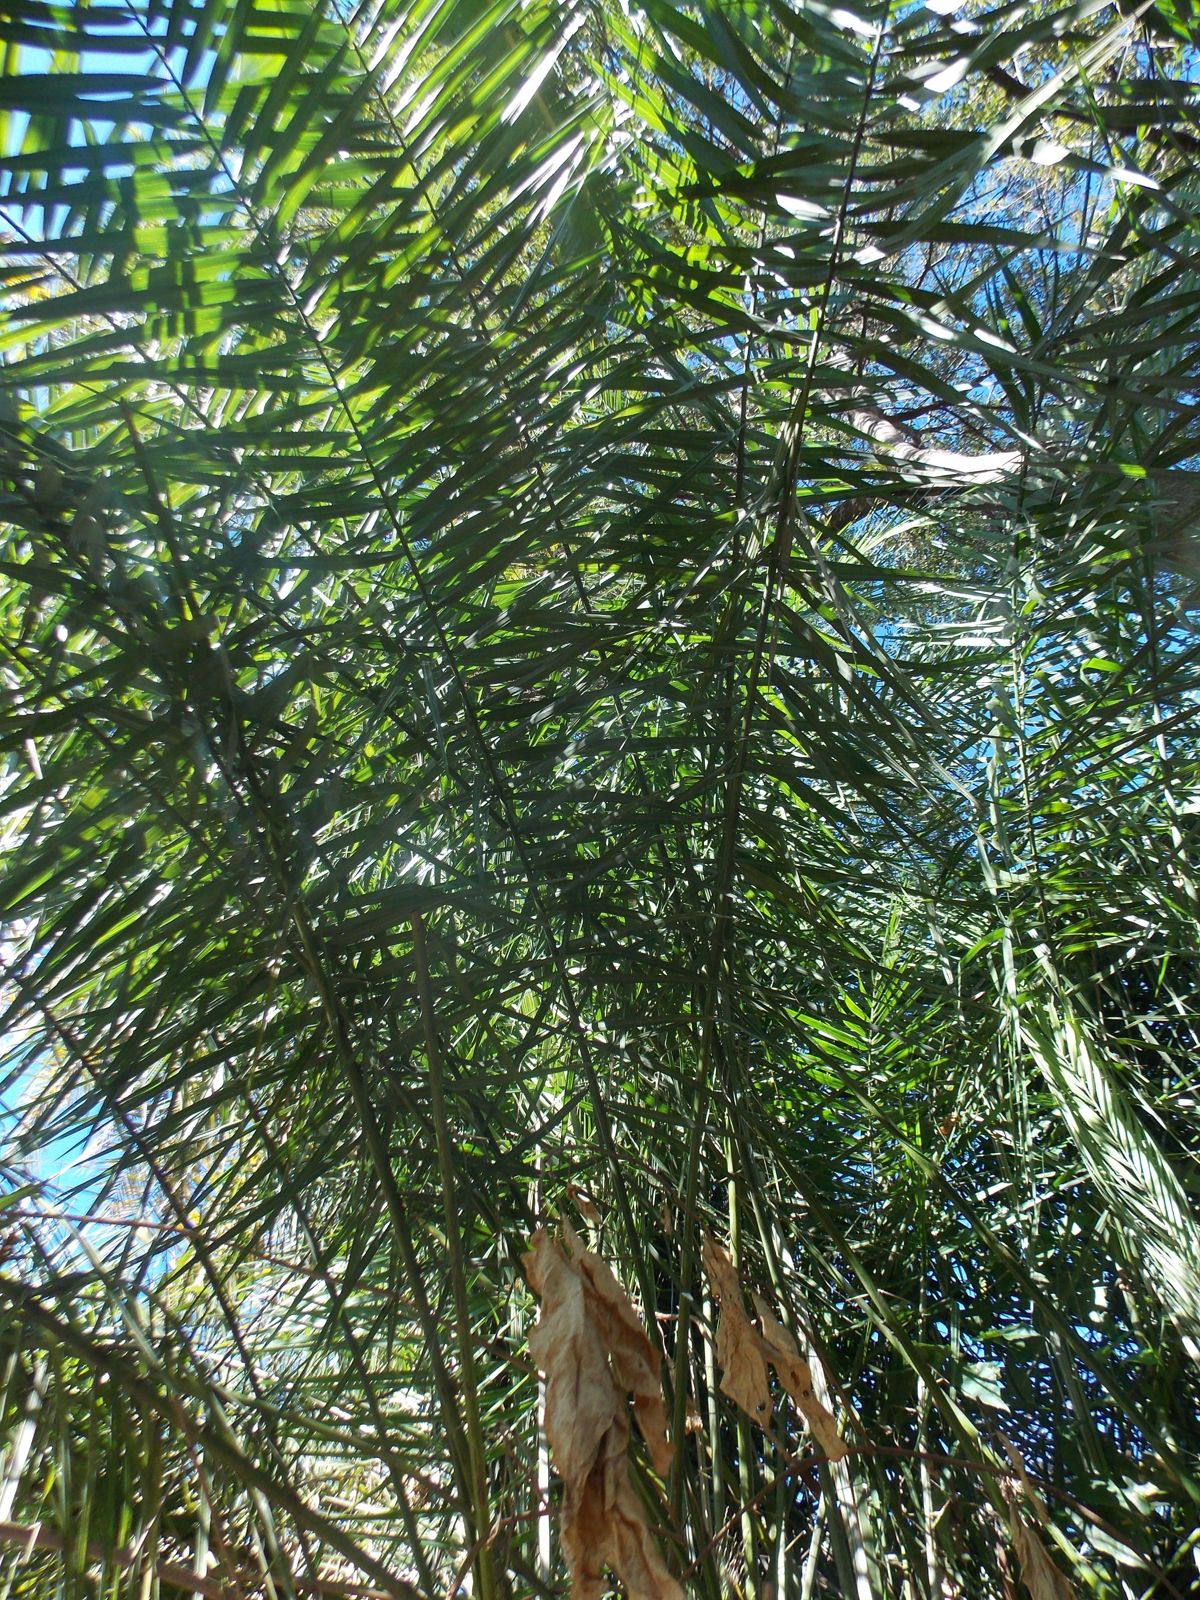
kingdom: Plantae
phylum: Tracheophyta
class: Liliopsida
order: Arecales
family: Arecaceae
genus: Phoenix
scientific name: Phoenix reclinata
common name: Senegal date palm
